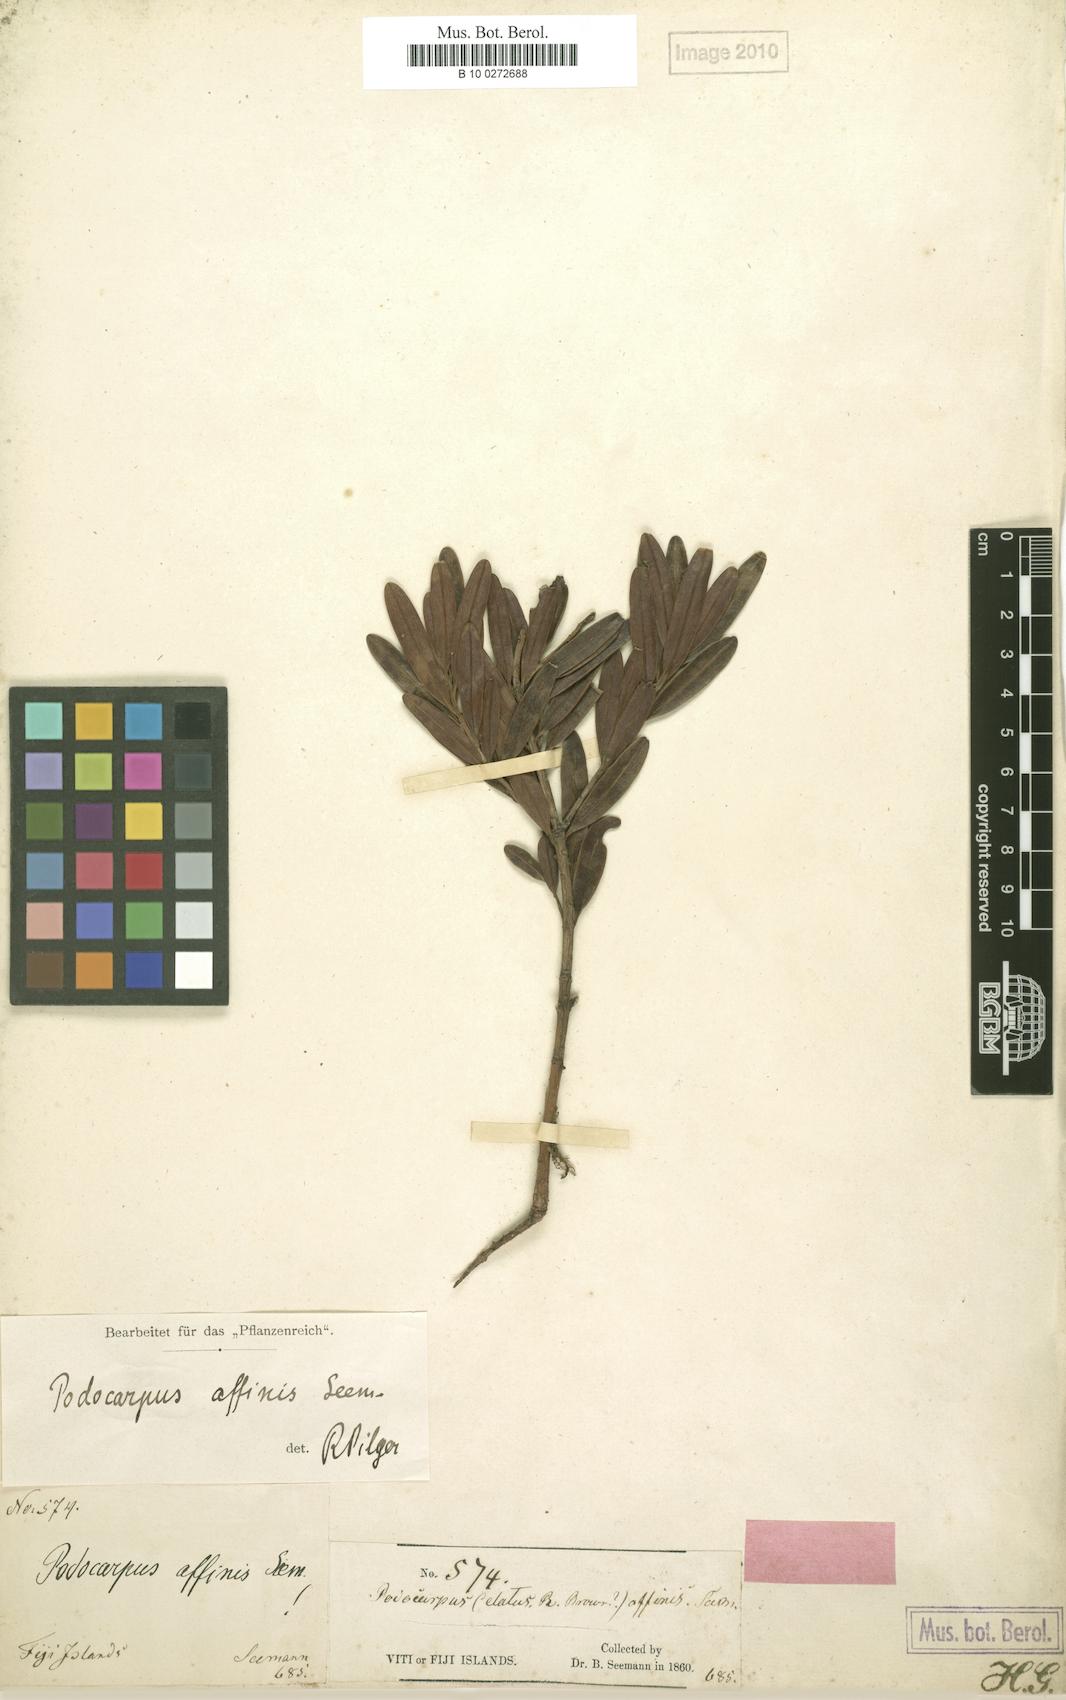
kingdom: Plantae
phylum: Tracheophyta
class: Pinopsida
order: Pinales
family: Podocarpaceae
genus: Podocarpus
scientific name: Podocarpus affinis
